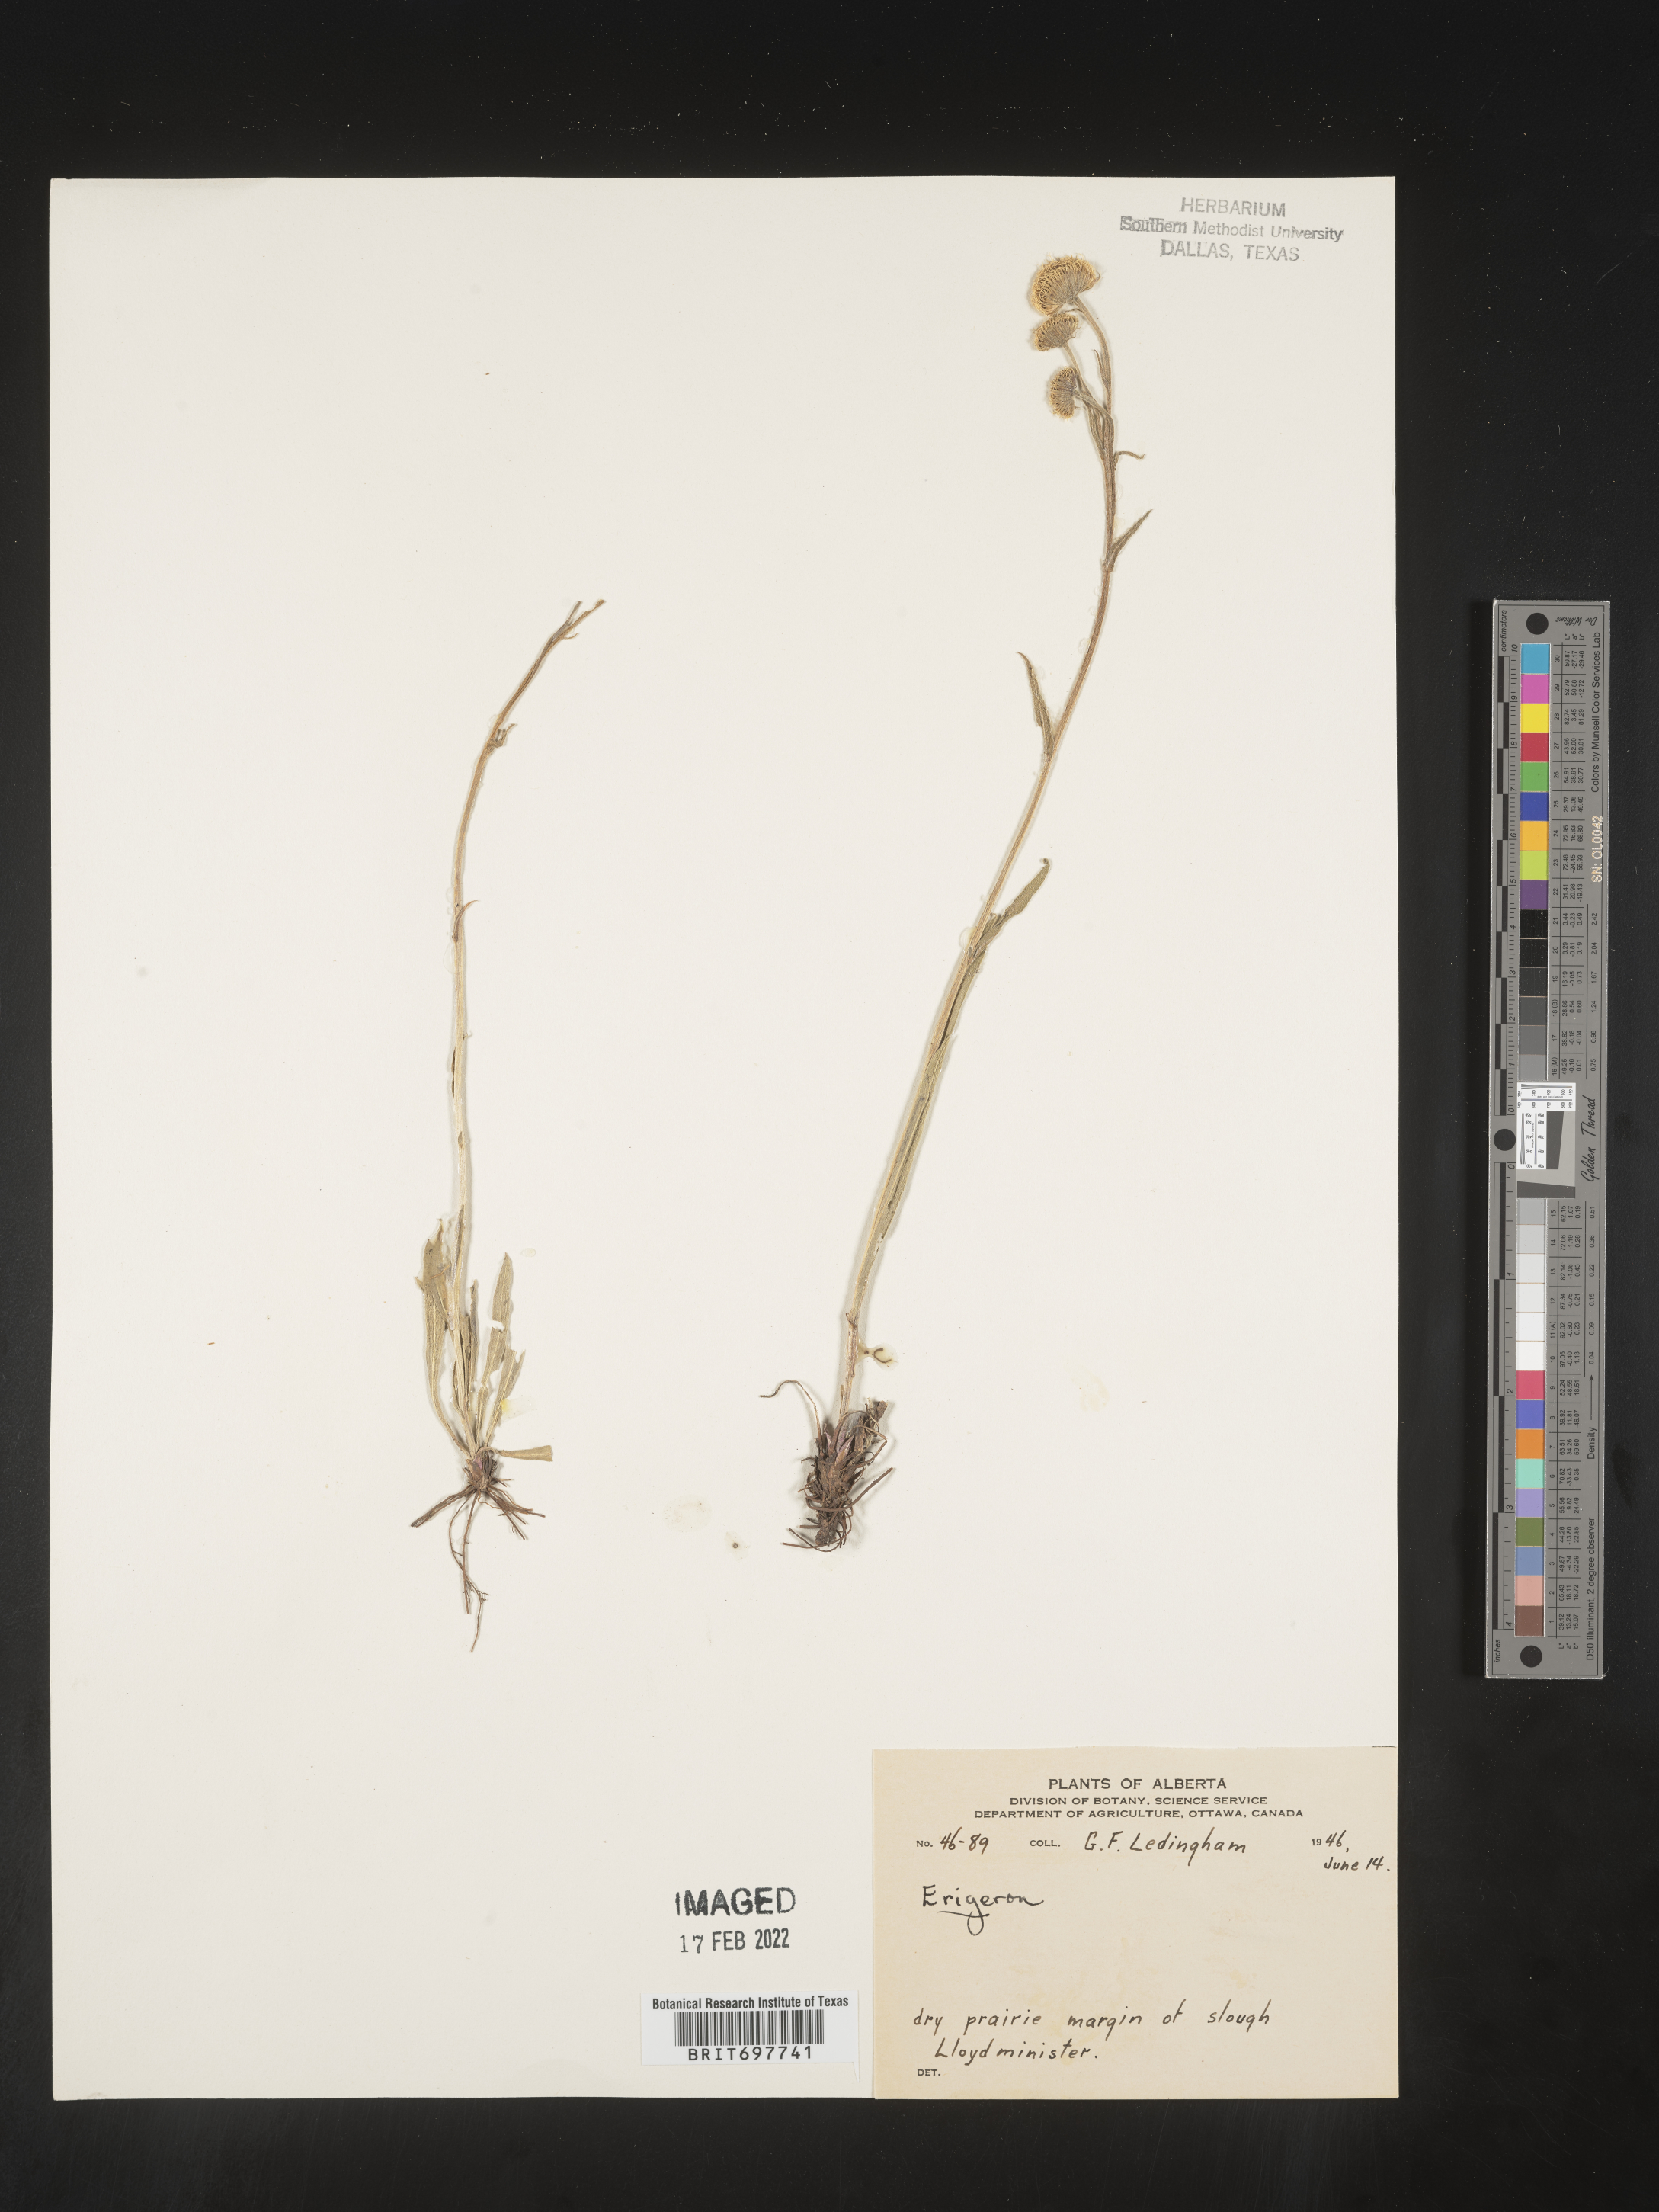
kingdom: Plantae
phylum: Tracheophyta
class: Magnoliopsida
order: Asterales
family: Asteraceae
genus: Erigeron
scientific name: Erigeron glabellus
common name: Smooth fleabane
